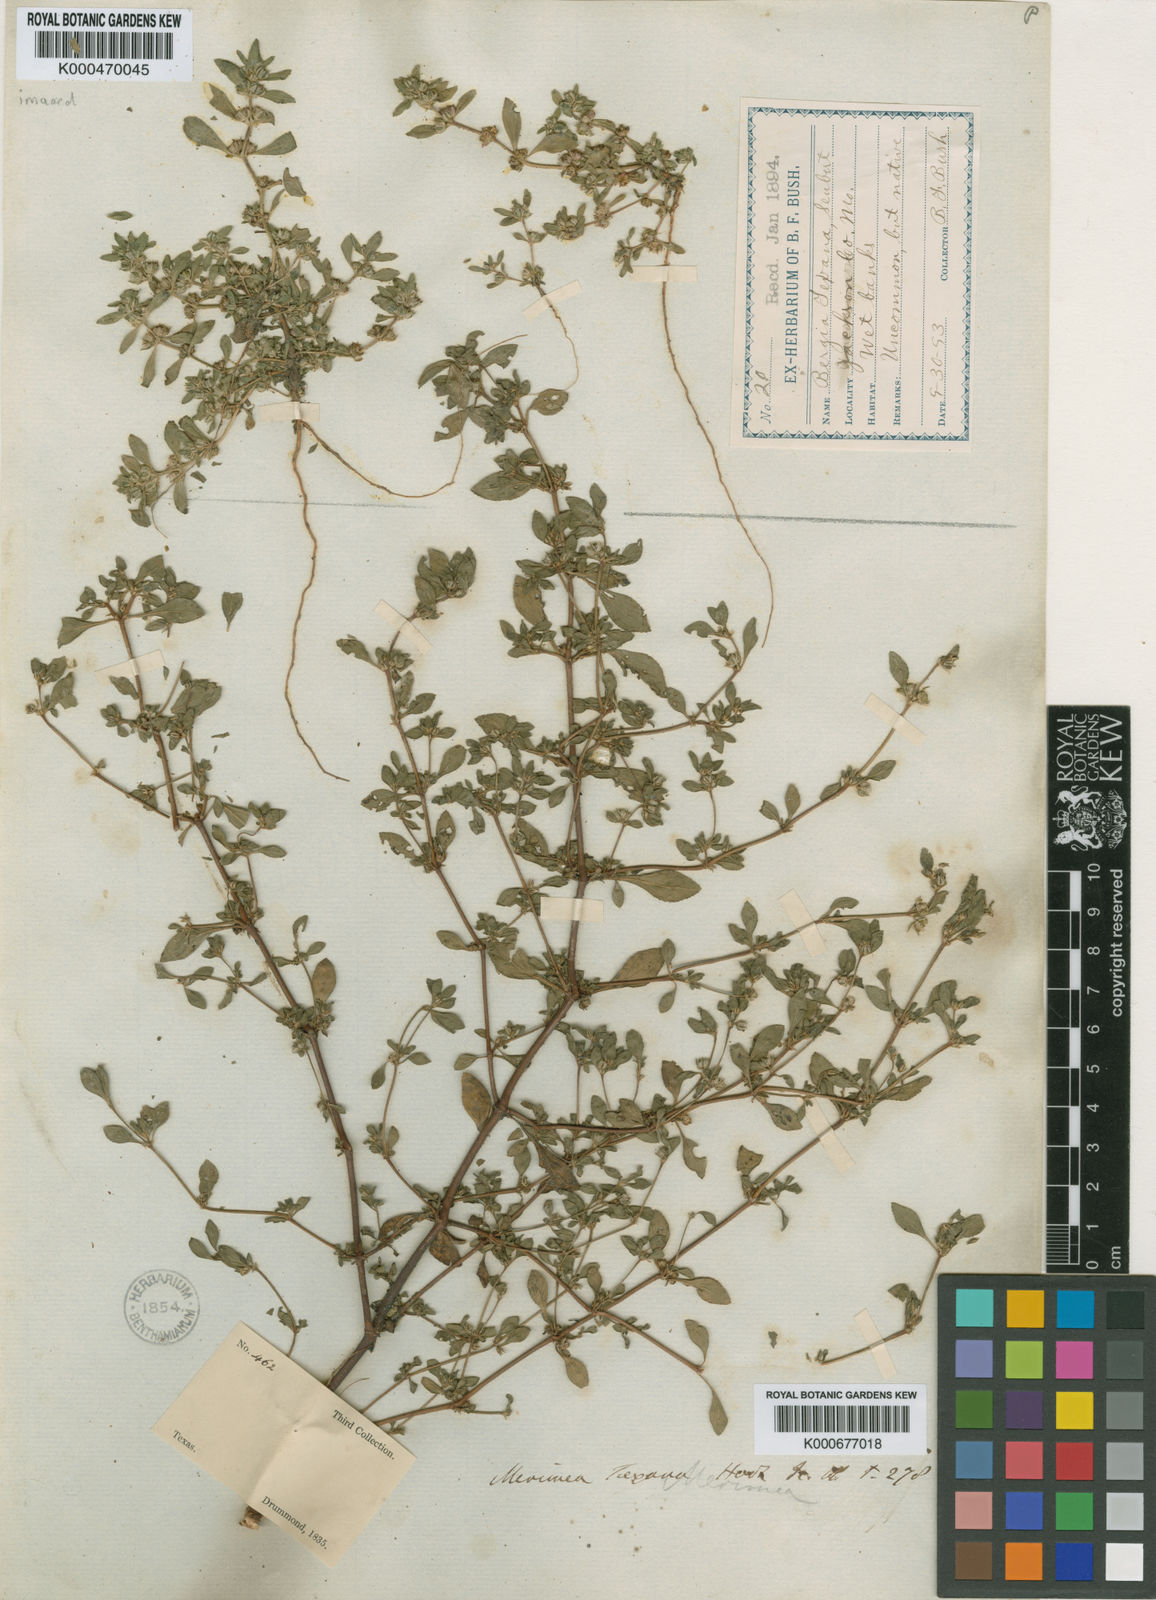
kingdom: Plantae
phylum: Tracheophyta
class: Magnoliopsida
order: Malpighiales
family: Elatinaceae
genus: Bergia
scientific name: Bergia
